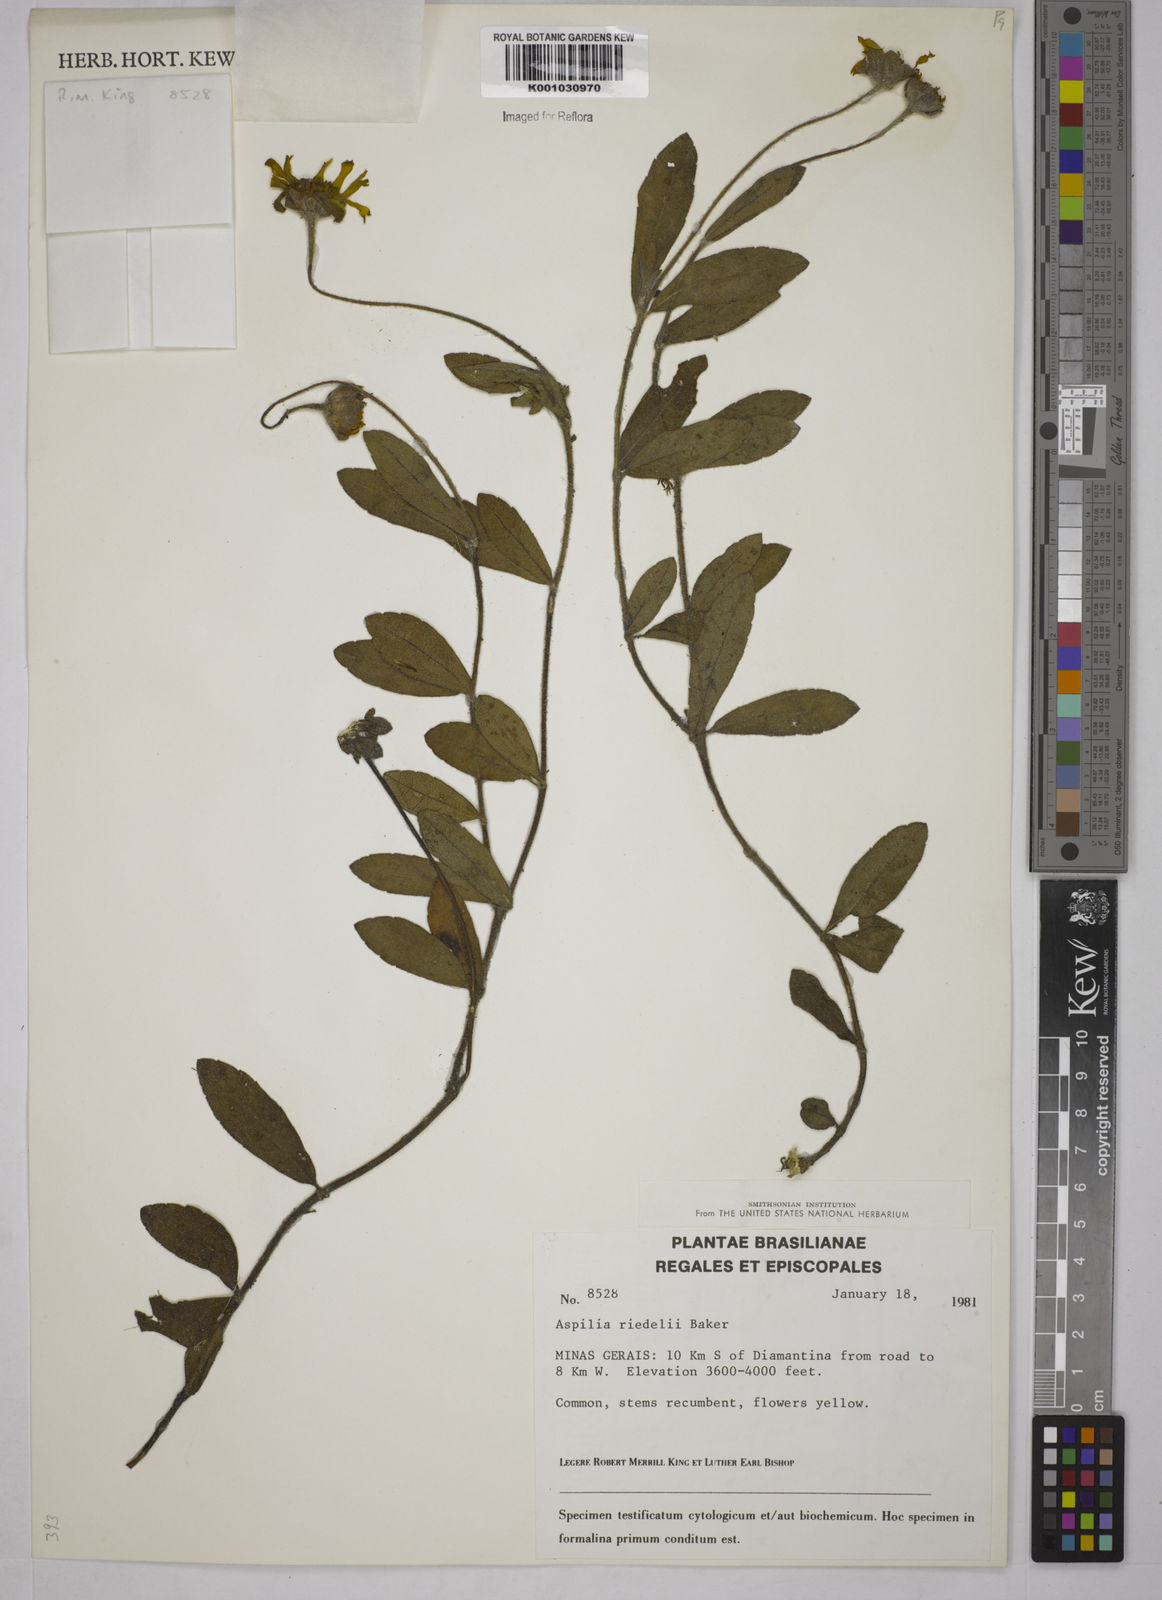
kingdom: Plantae
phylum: Tracheophyta
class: Magnoliopsida
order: Asterales
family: Asteraceae
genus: Wedelia
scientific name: Wedelia riedellii
